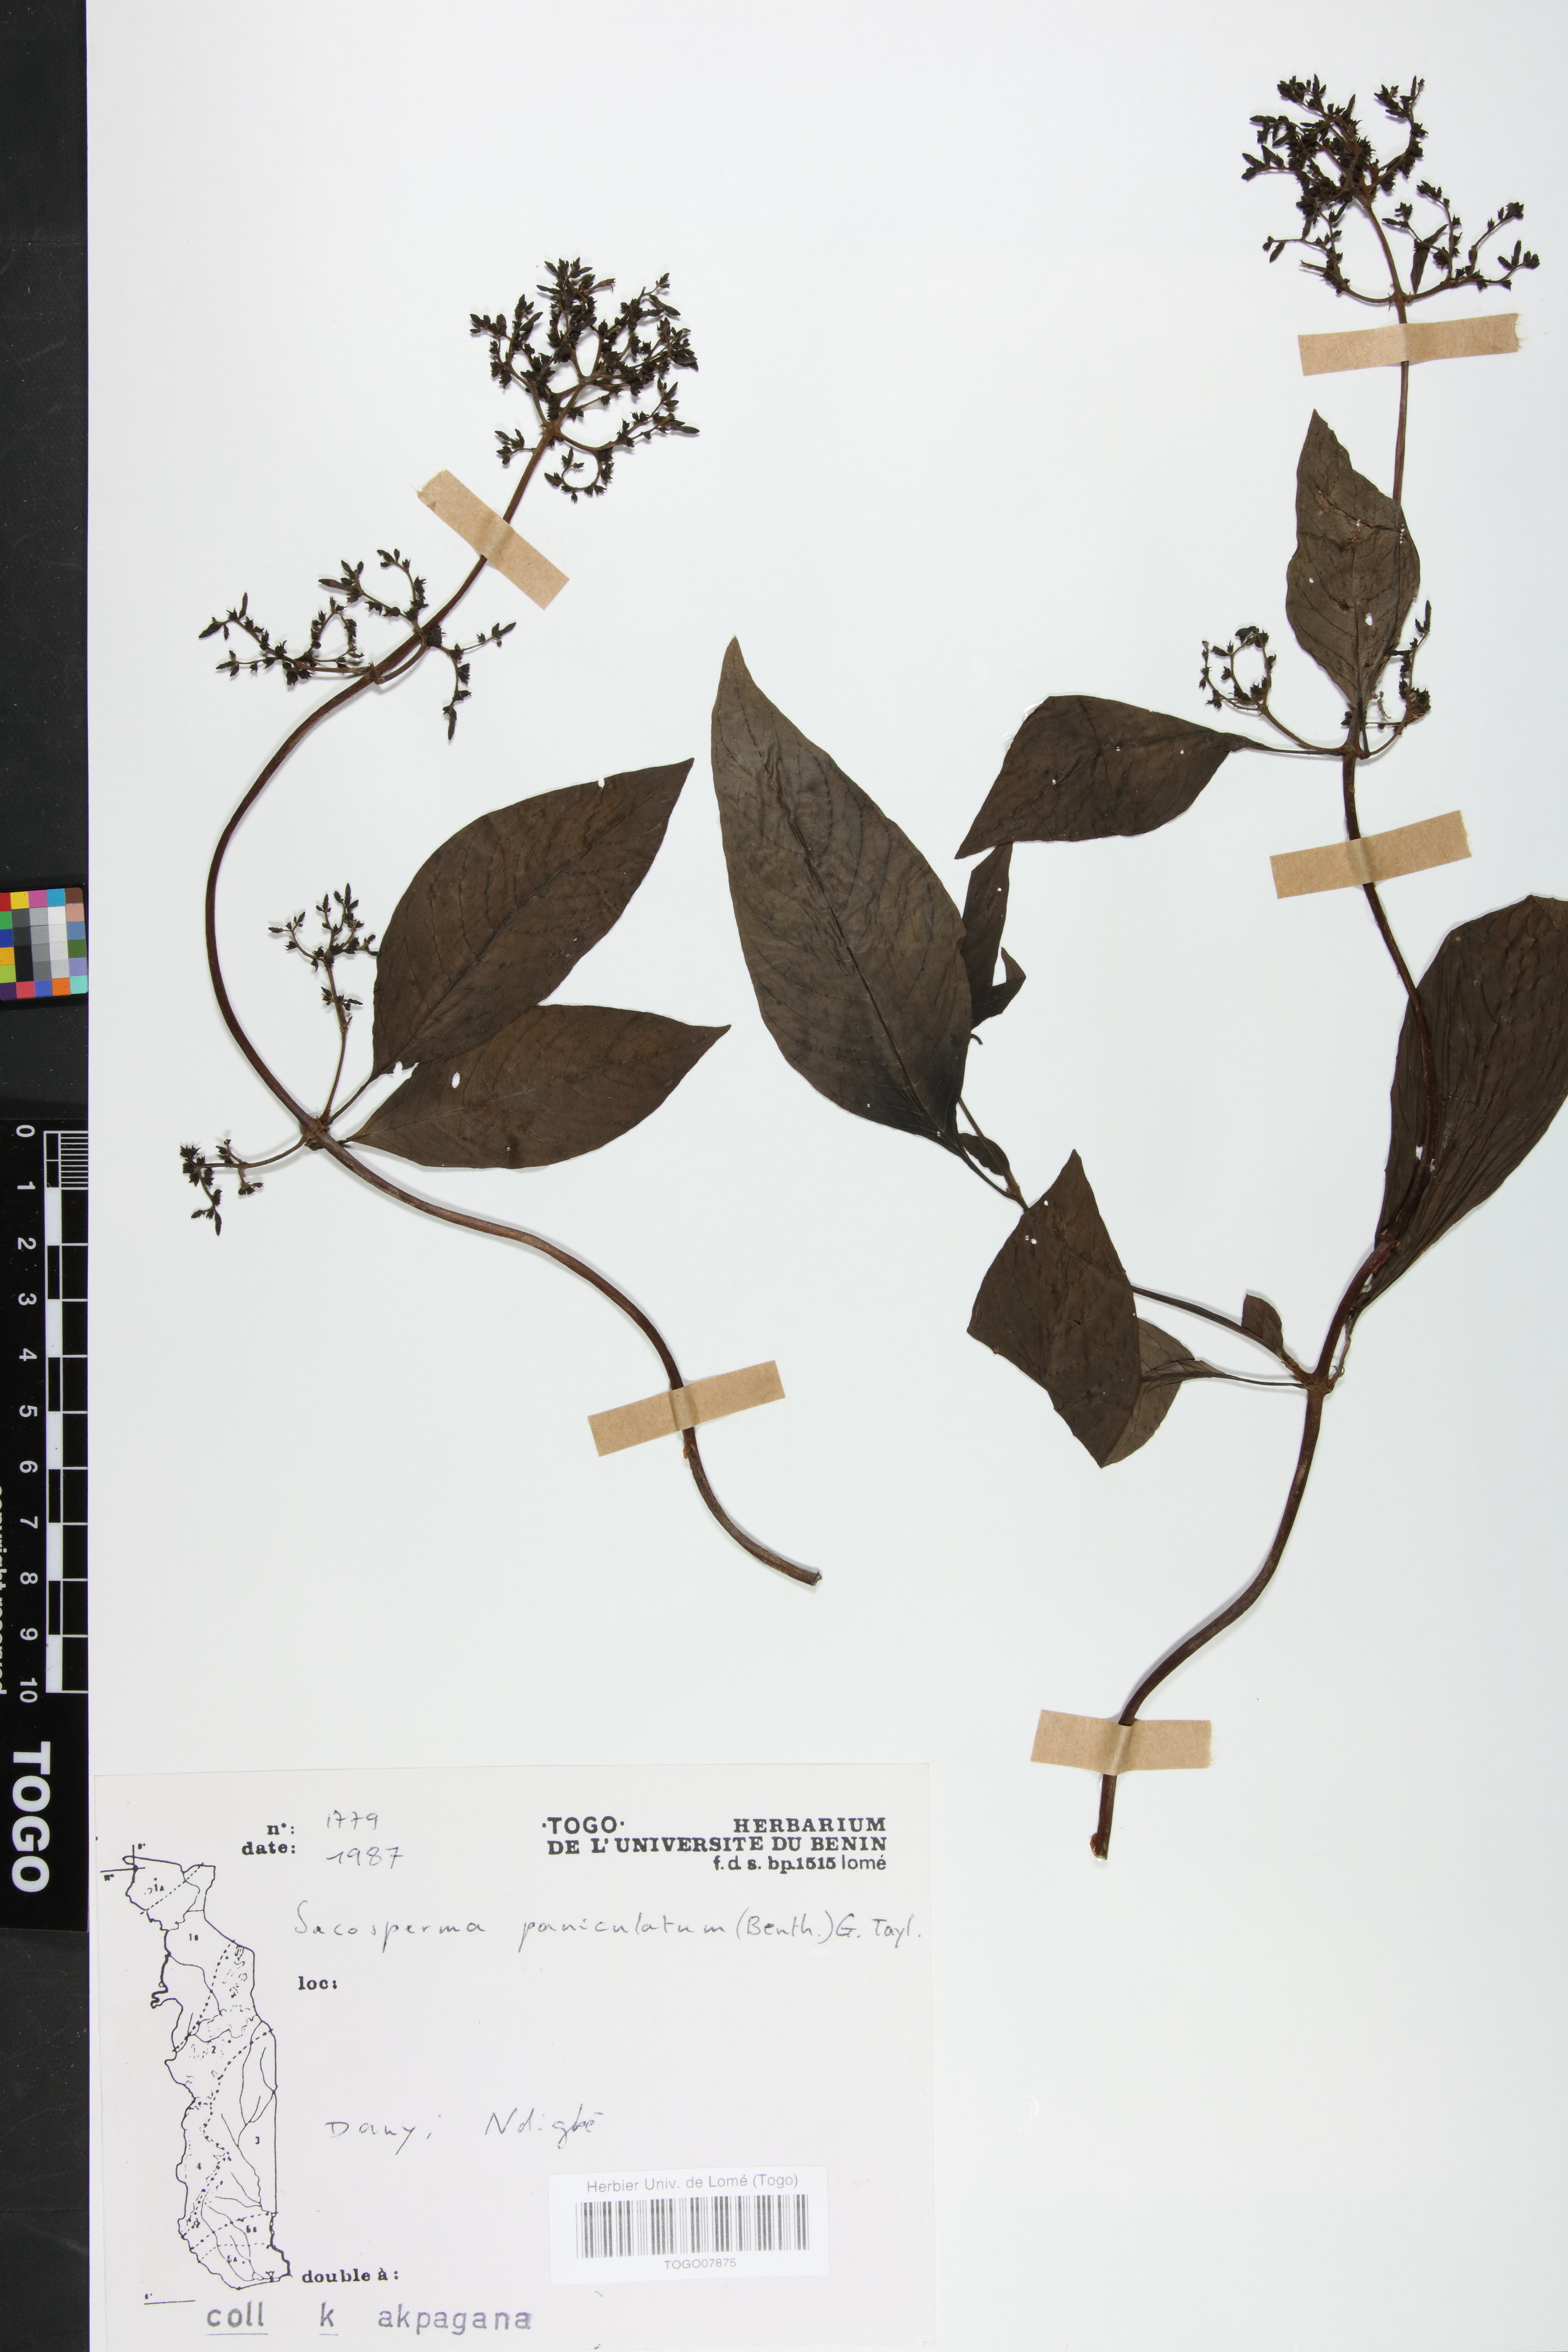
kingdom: Plantae
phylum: Tracheophyta
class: Magnoliopsida
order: Gentianales
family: Rubiaceae
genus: Sacosperma
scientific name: Sacosperma paniculatum
